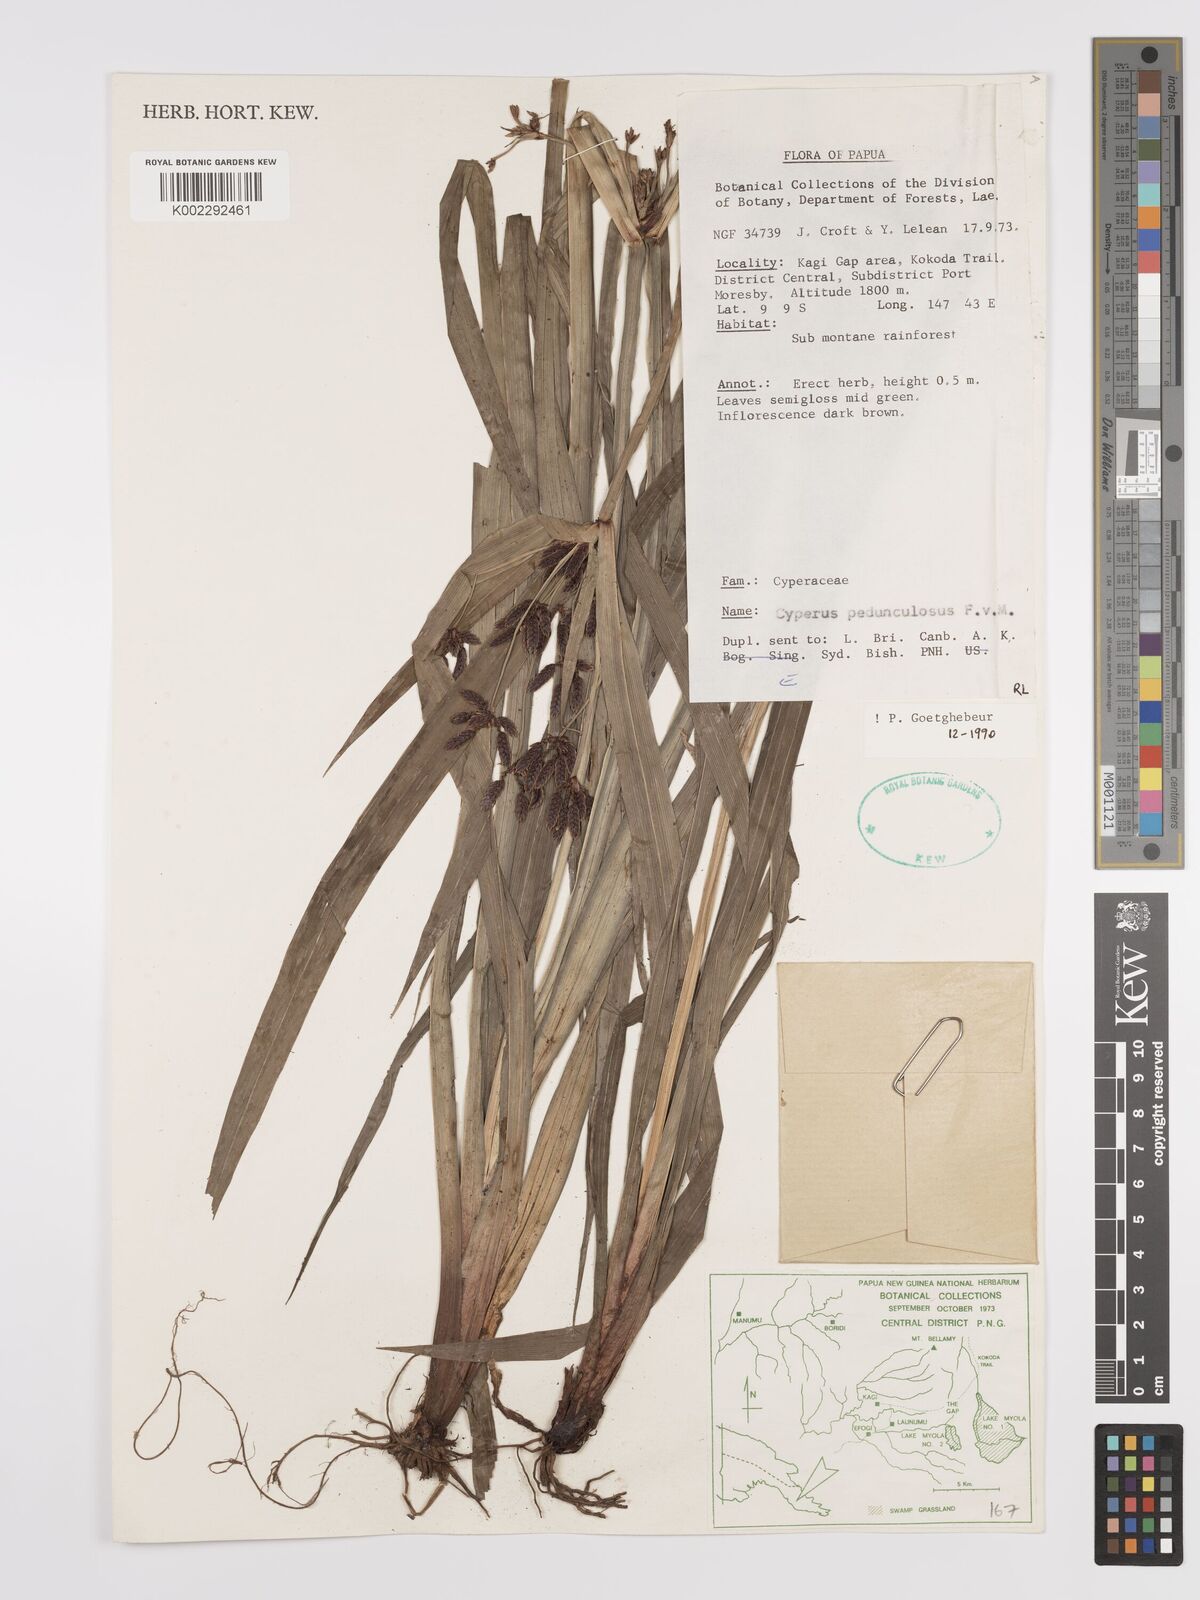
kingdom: Plantae
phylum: Tracheophyta
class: Liliopsida
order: Poales
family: Cyperaceae
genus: Cyperus
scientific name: Cyperus pedunculosus
